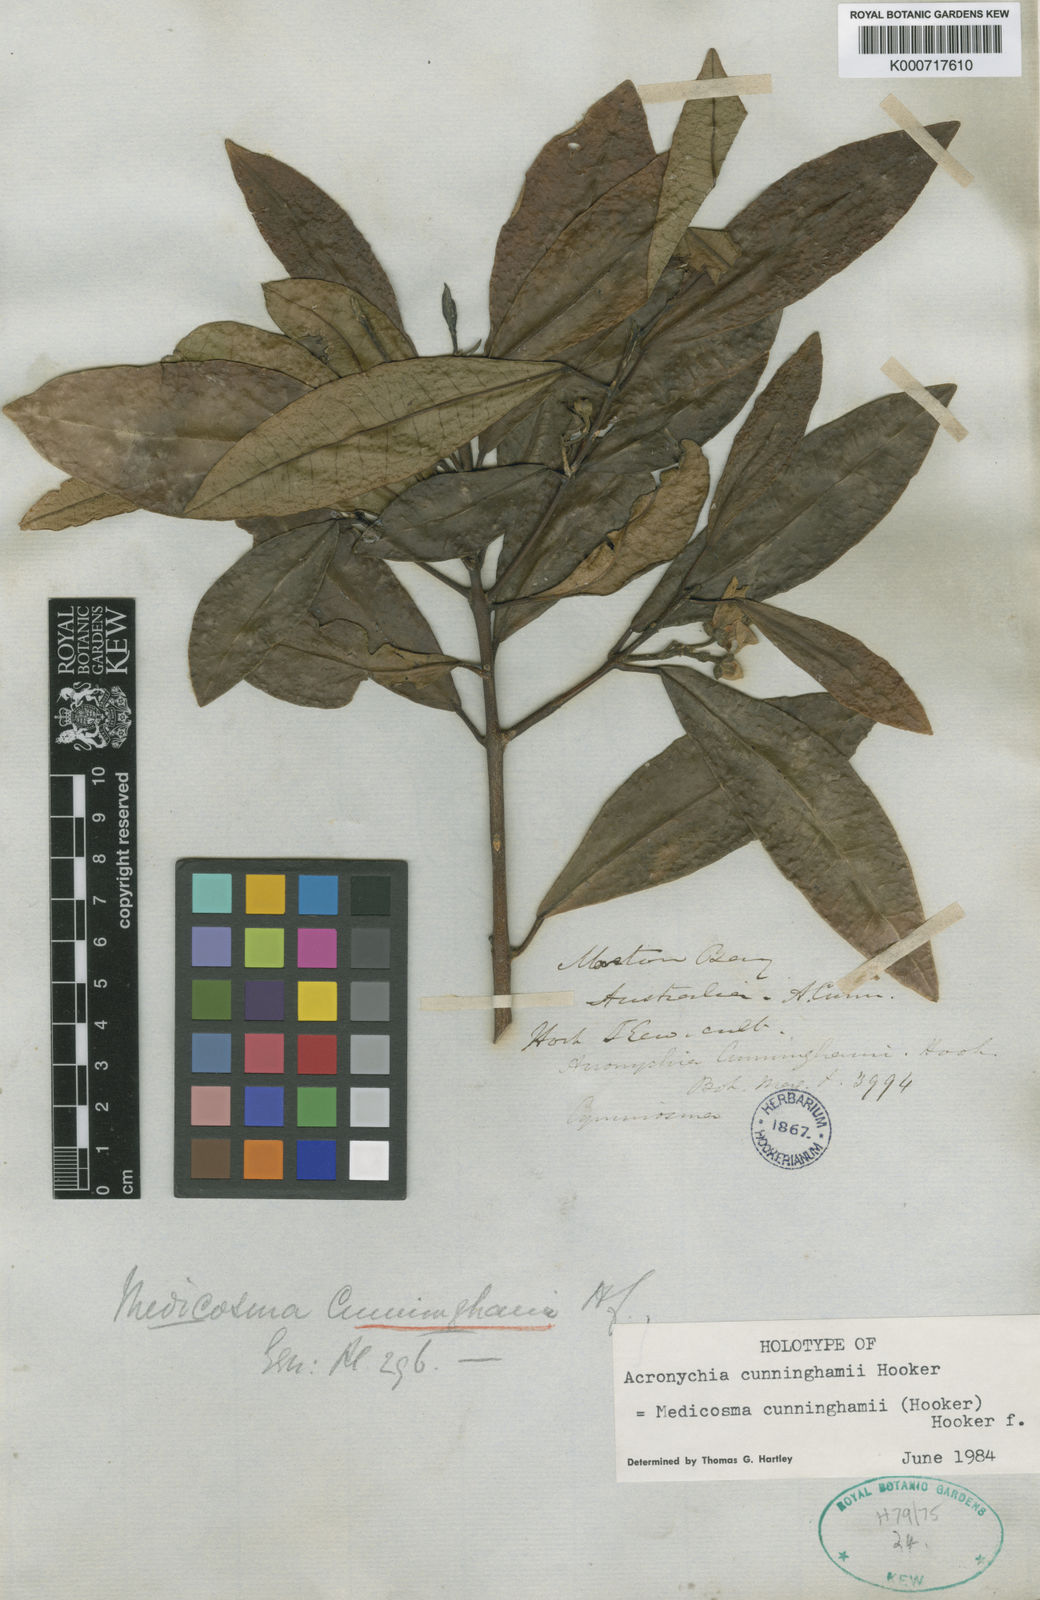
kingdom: Plantae
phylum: Tracheophyta
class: Magnoliopsida
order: Sapindales
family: Rutaceae
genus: Medicosma
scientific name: Medicosma cunninghamii
